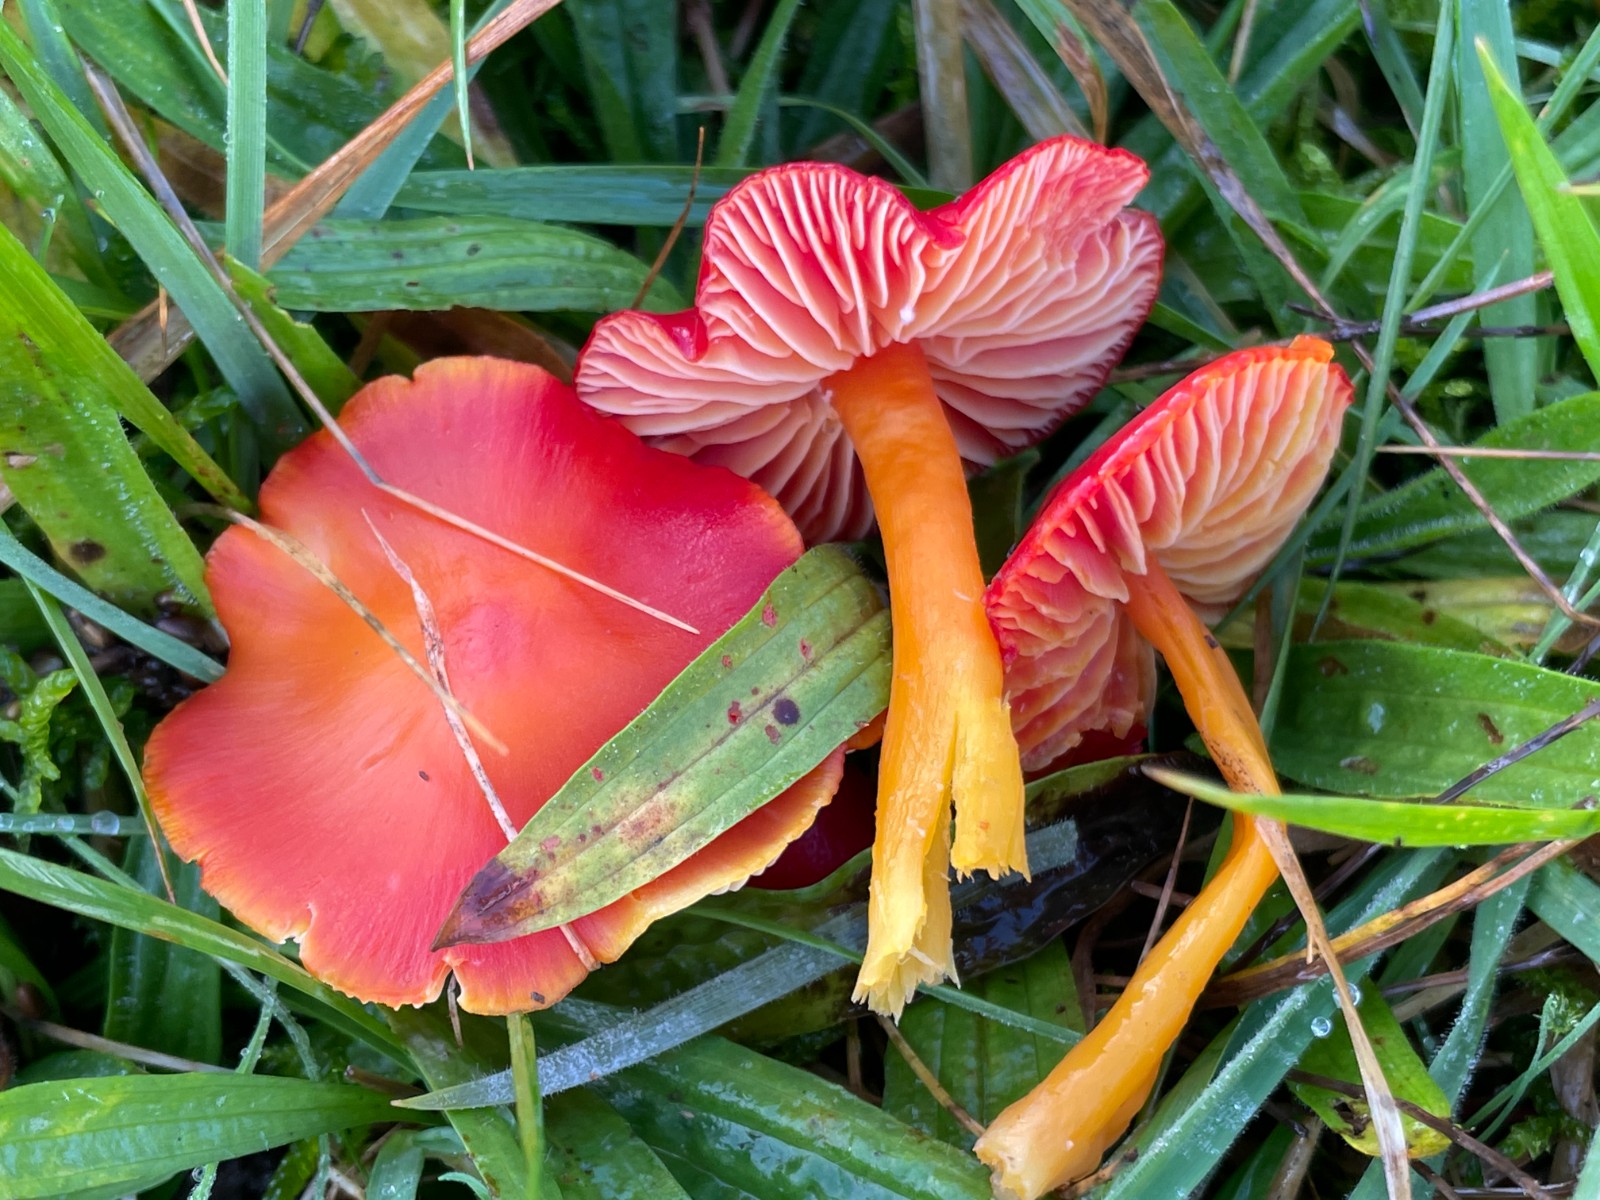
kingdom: Fungi
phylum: Basidiomycota
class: Agaricomycetes
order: Agaricales
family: Hygrophoraceae
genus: Hygrocybe
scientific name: Hygrocybe coccinea
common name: cinnober-vokshat
